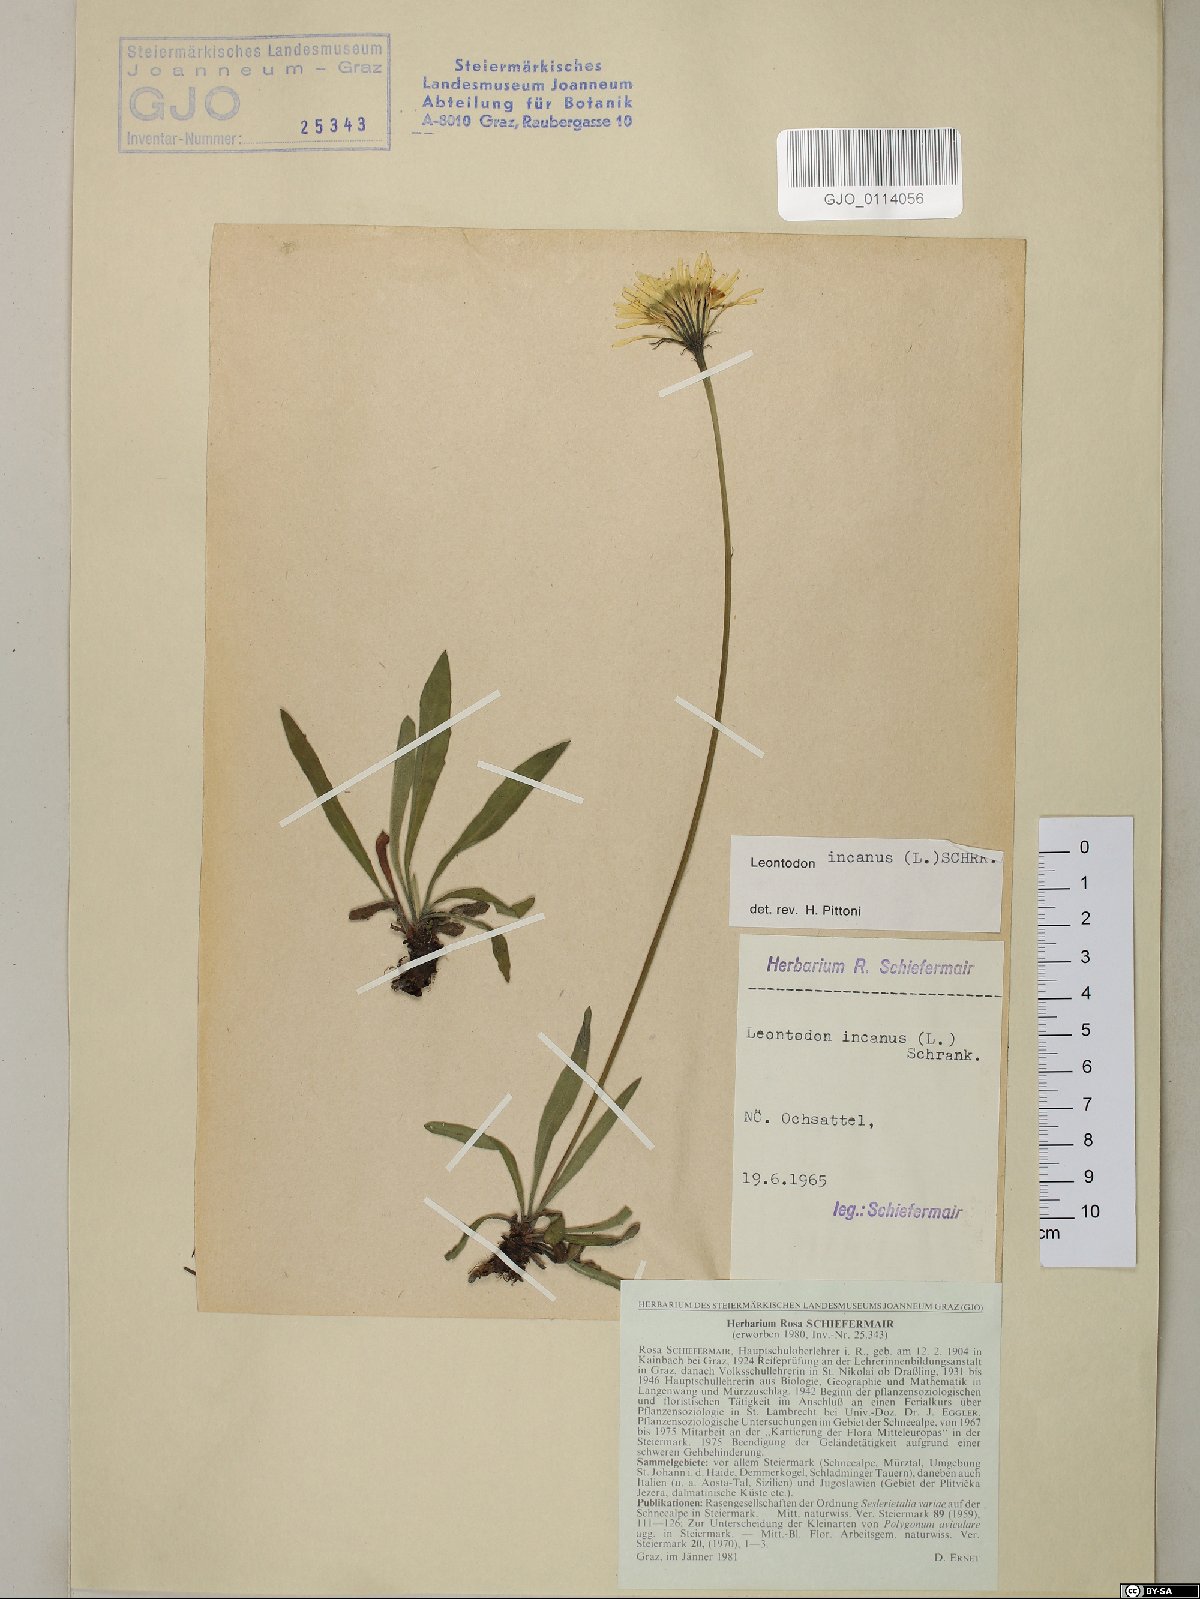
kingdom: Plantae
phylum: Tracheophyta
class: Magnoliopsida
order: Asterales
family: Asteraceae
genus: Leontodon
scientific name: Leontodon incanus
